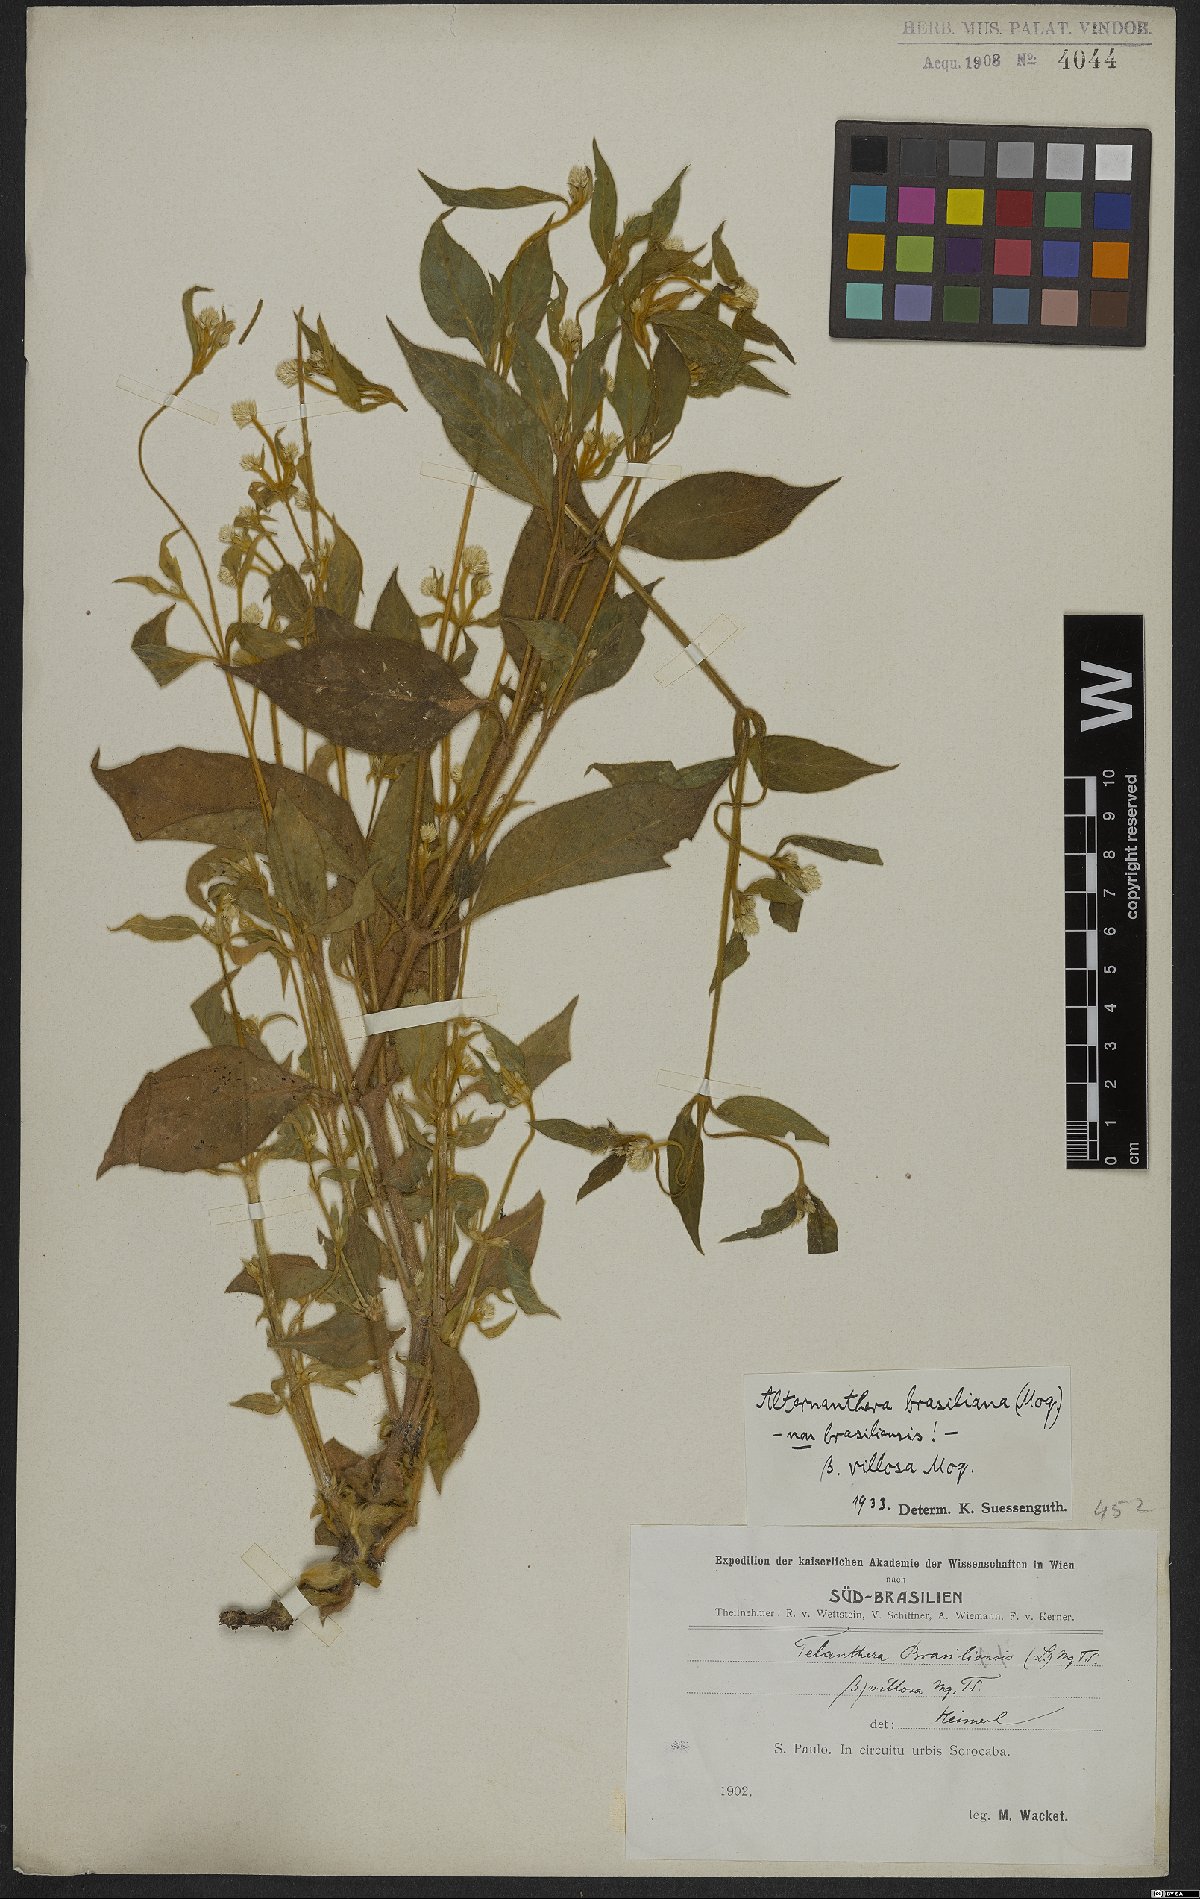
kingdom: Plantae
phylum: Tracheophyta
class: Magnoliopsida
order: Caryophyllales
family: Amaranthaceae
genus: Alternanthera
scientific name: Alternanthera brasiliana
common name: Brazilian joyweed
